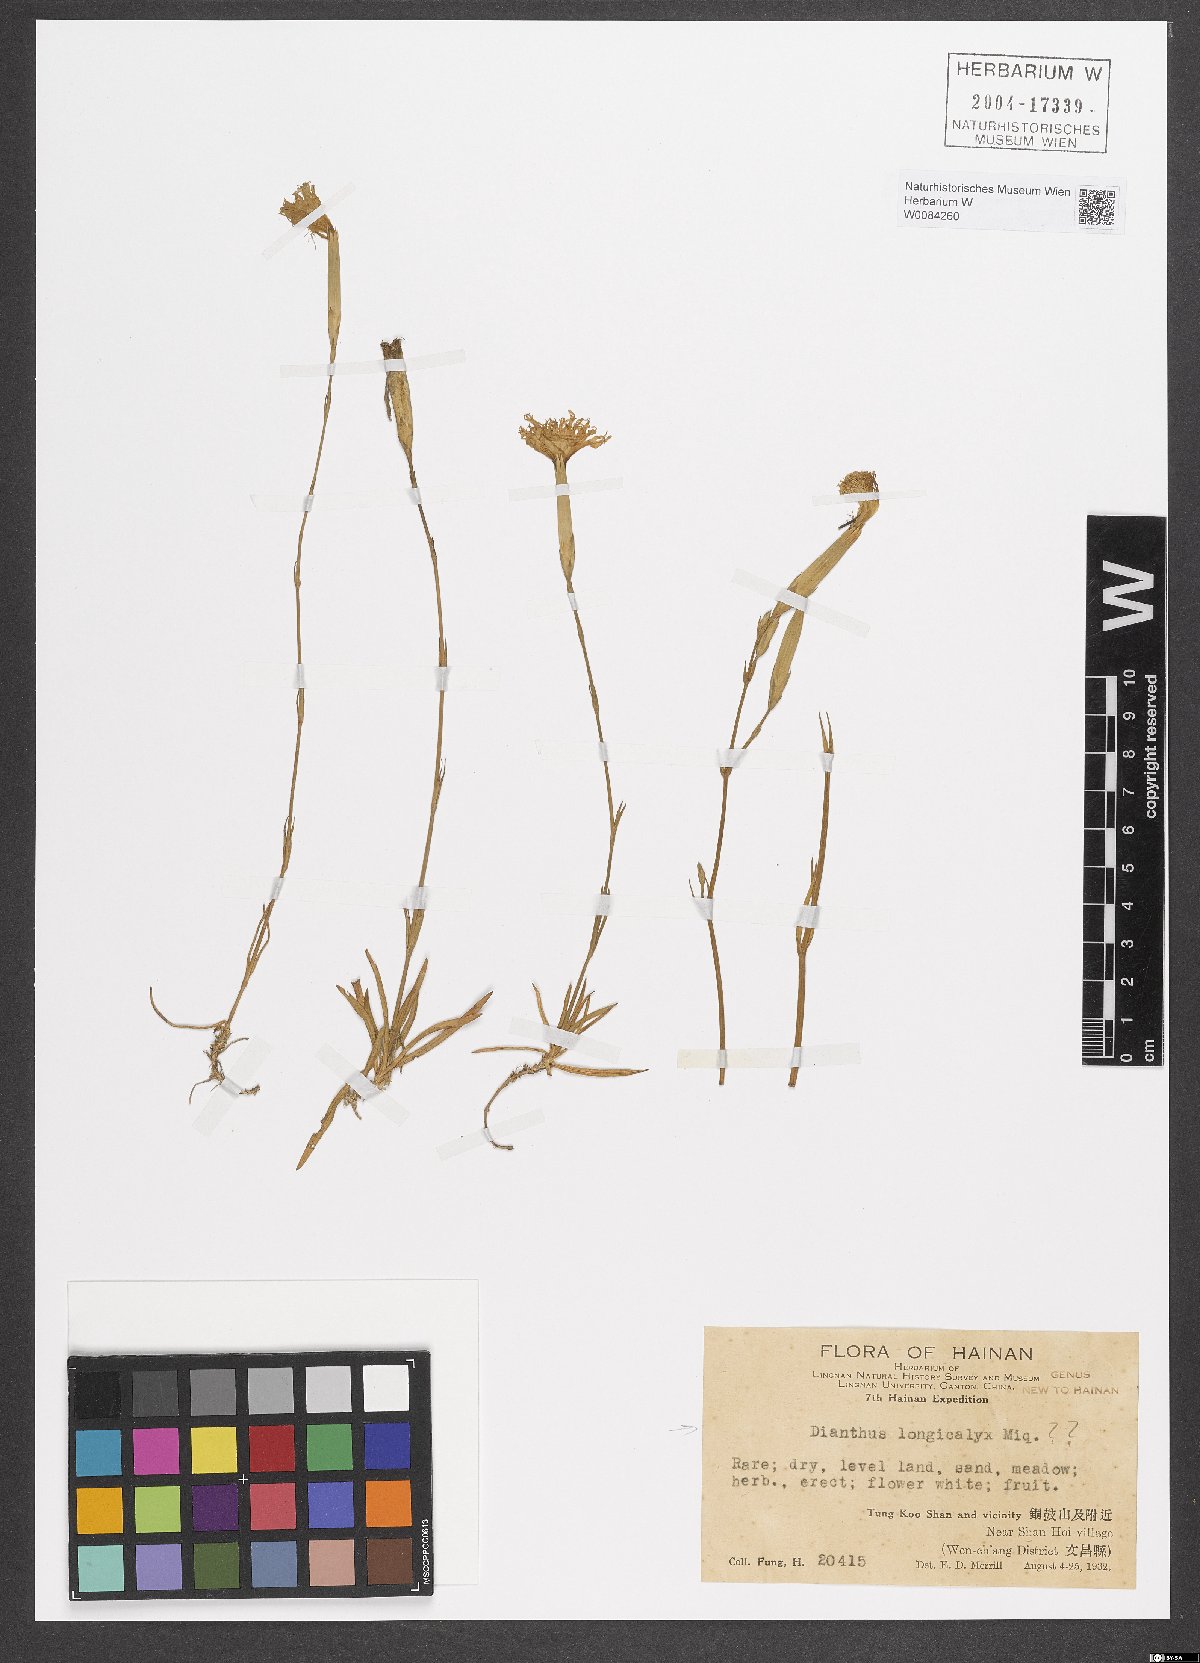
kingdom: Plantae
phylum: Tracheophyta
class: Magnoliopsida
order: Caryophyllales
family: Caryophyllaceae
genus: Dianthus
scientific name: Dianthus longicalyx
